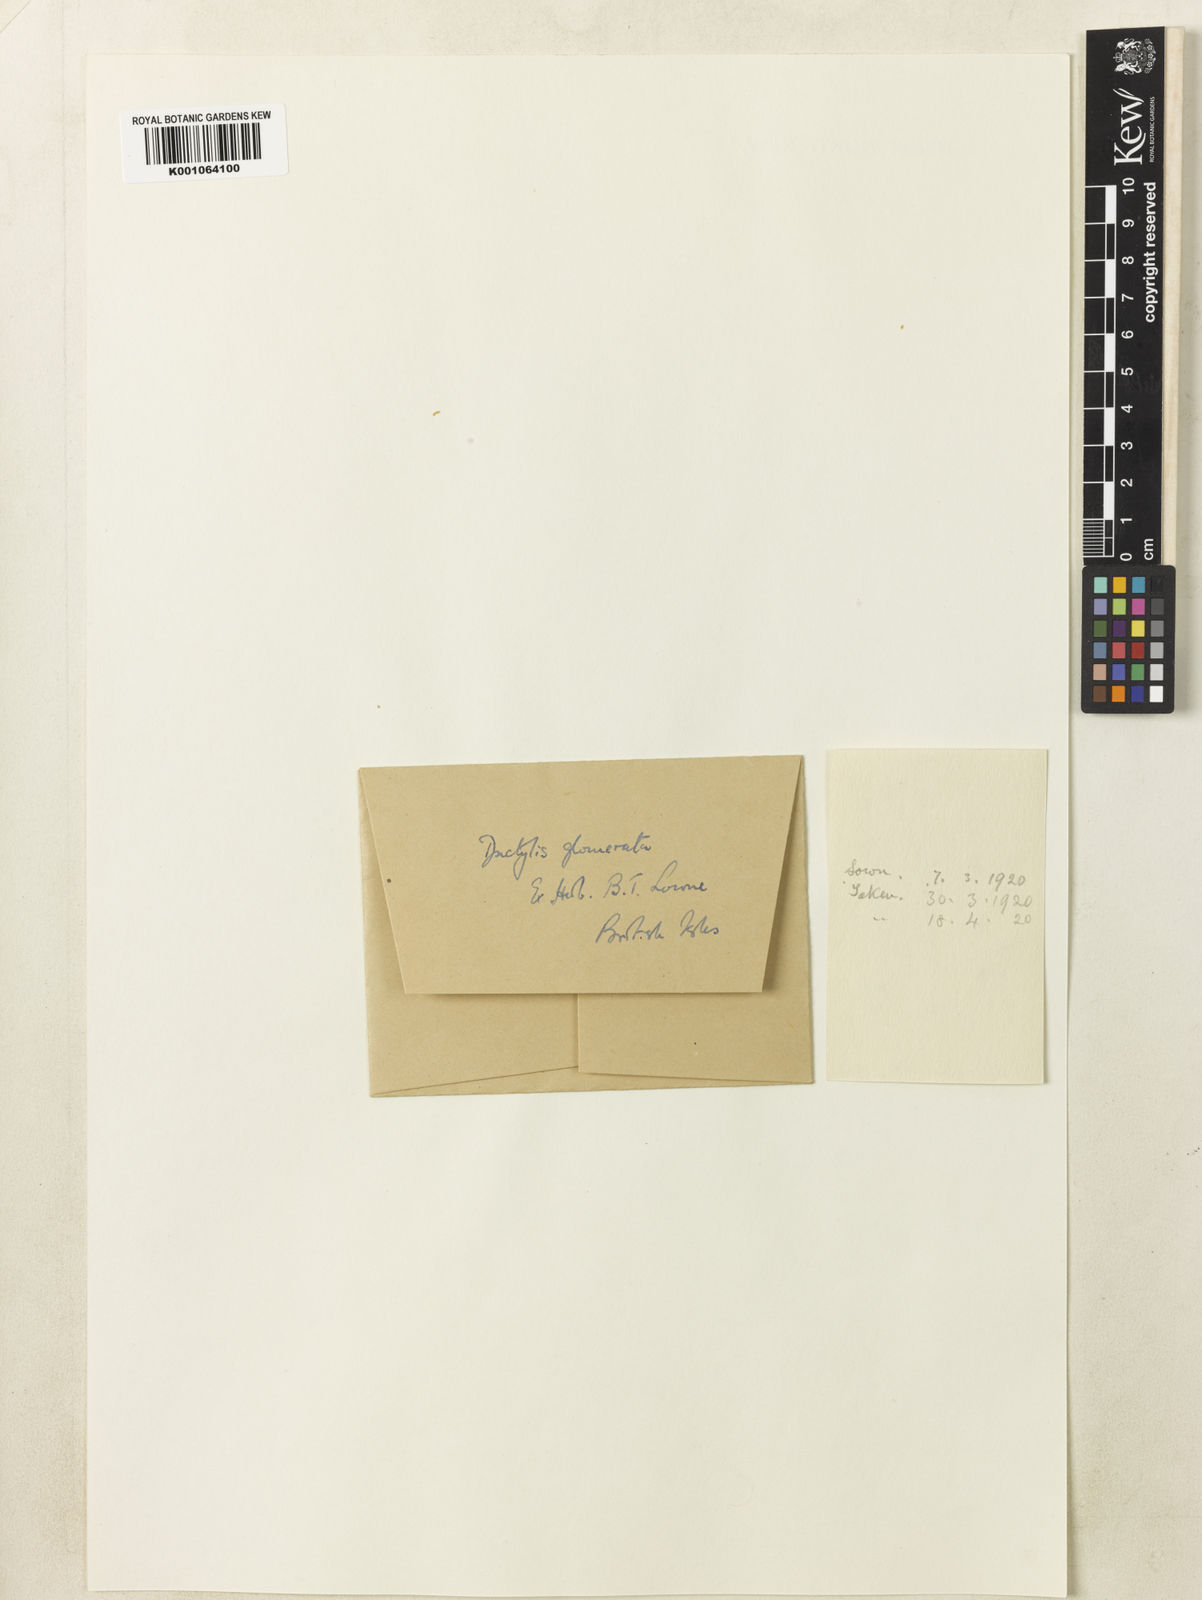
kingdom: Plantae
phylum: Tracheophyta
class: Liliopsida
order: Poales
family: Poaceae
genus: Dactylis
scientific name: Dactylis glomerata
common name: Orchardgrass
